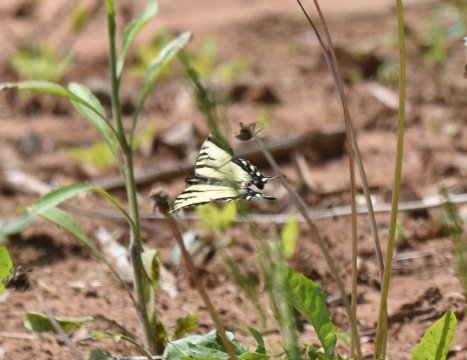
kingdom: Animalia
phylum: Arthropoda
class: Insecta
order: Lepidoptera
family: Papilionidae
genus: Pterourus
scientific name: Pterourus canadensis
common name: Canadian Tiger Swallowtail
